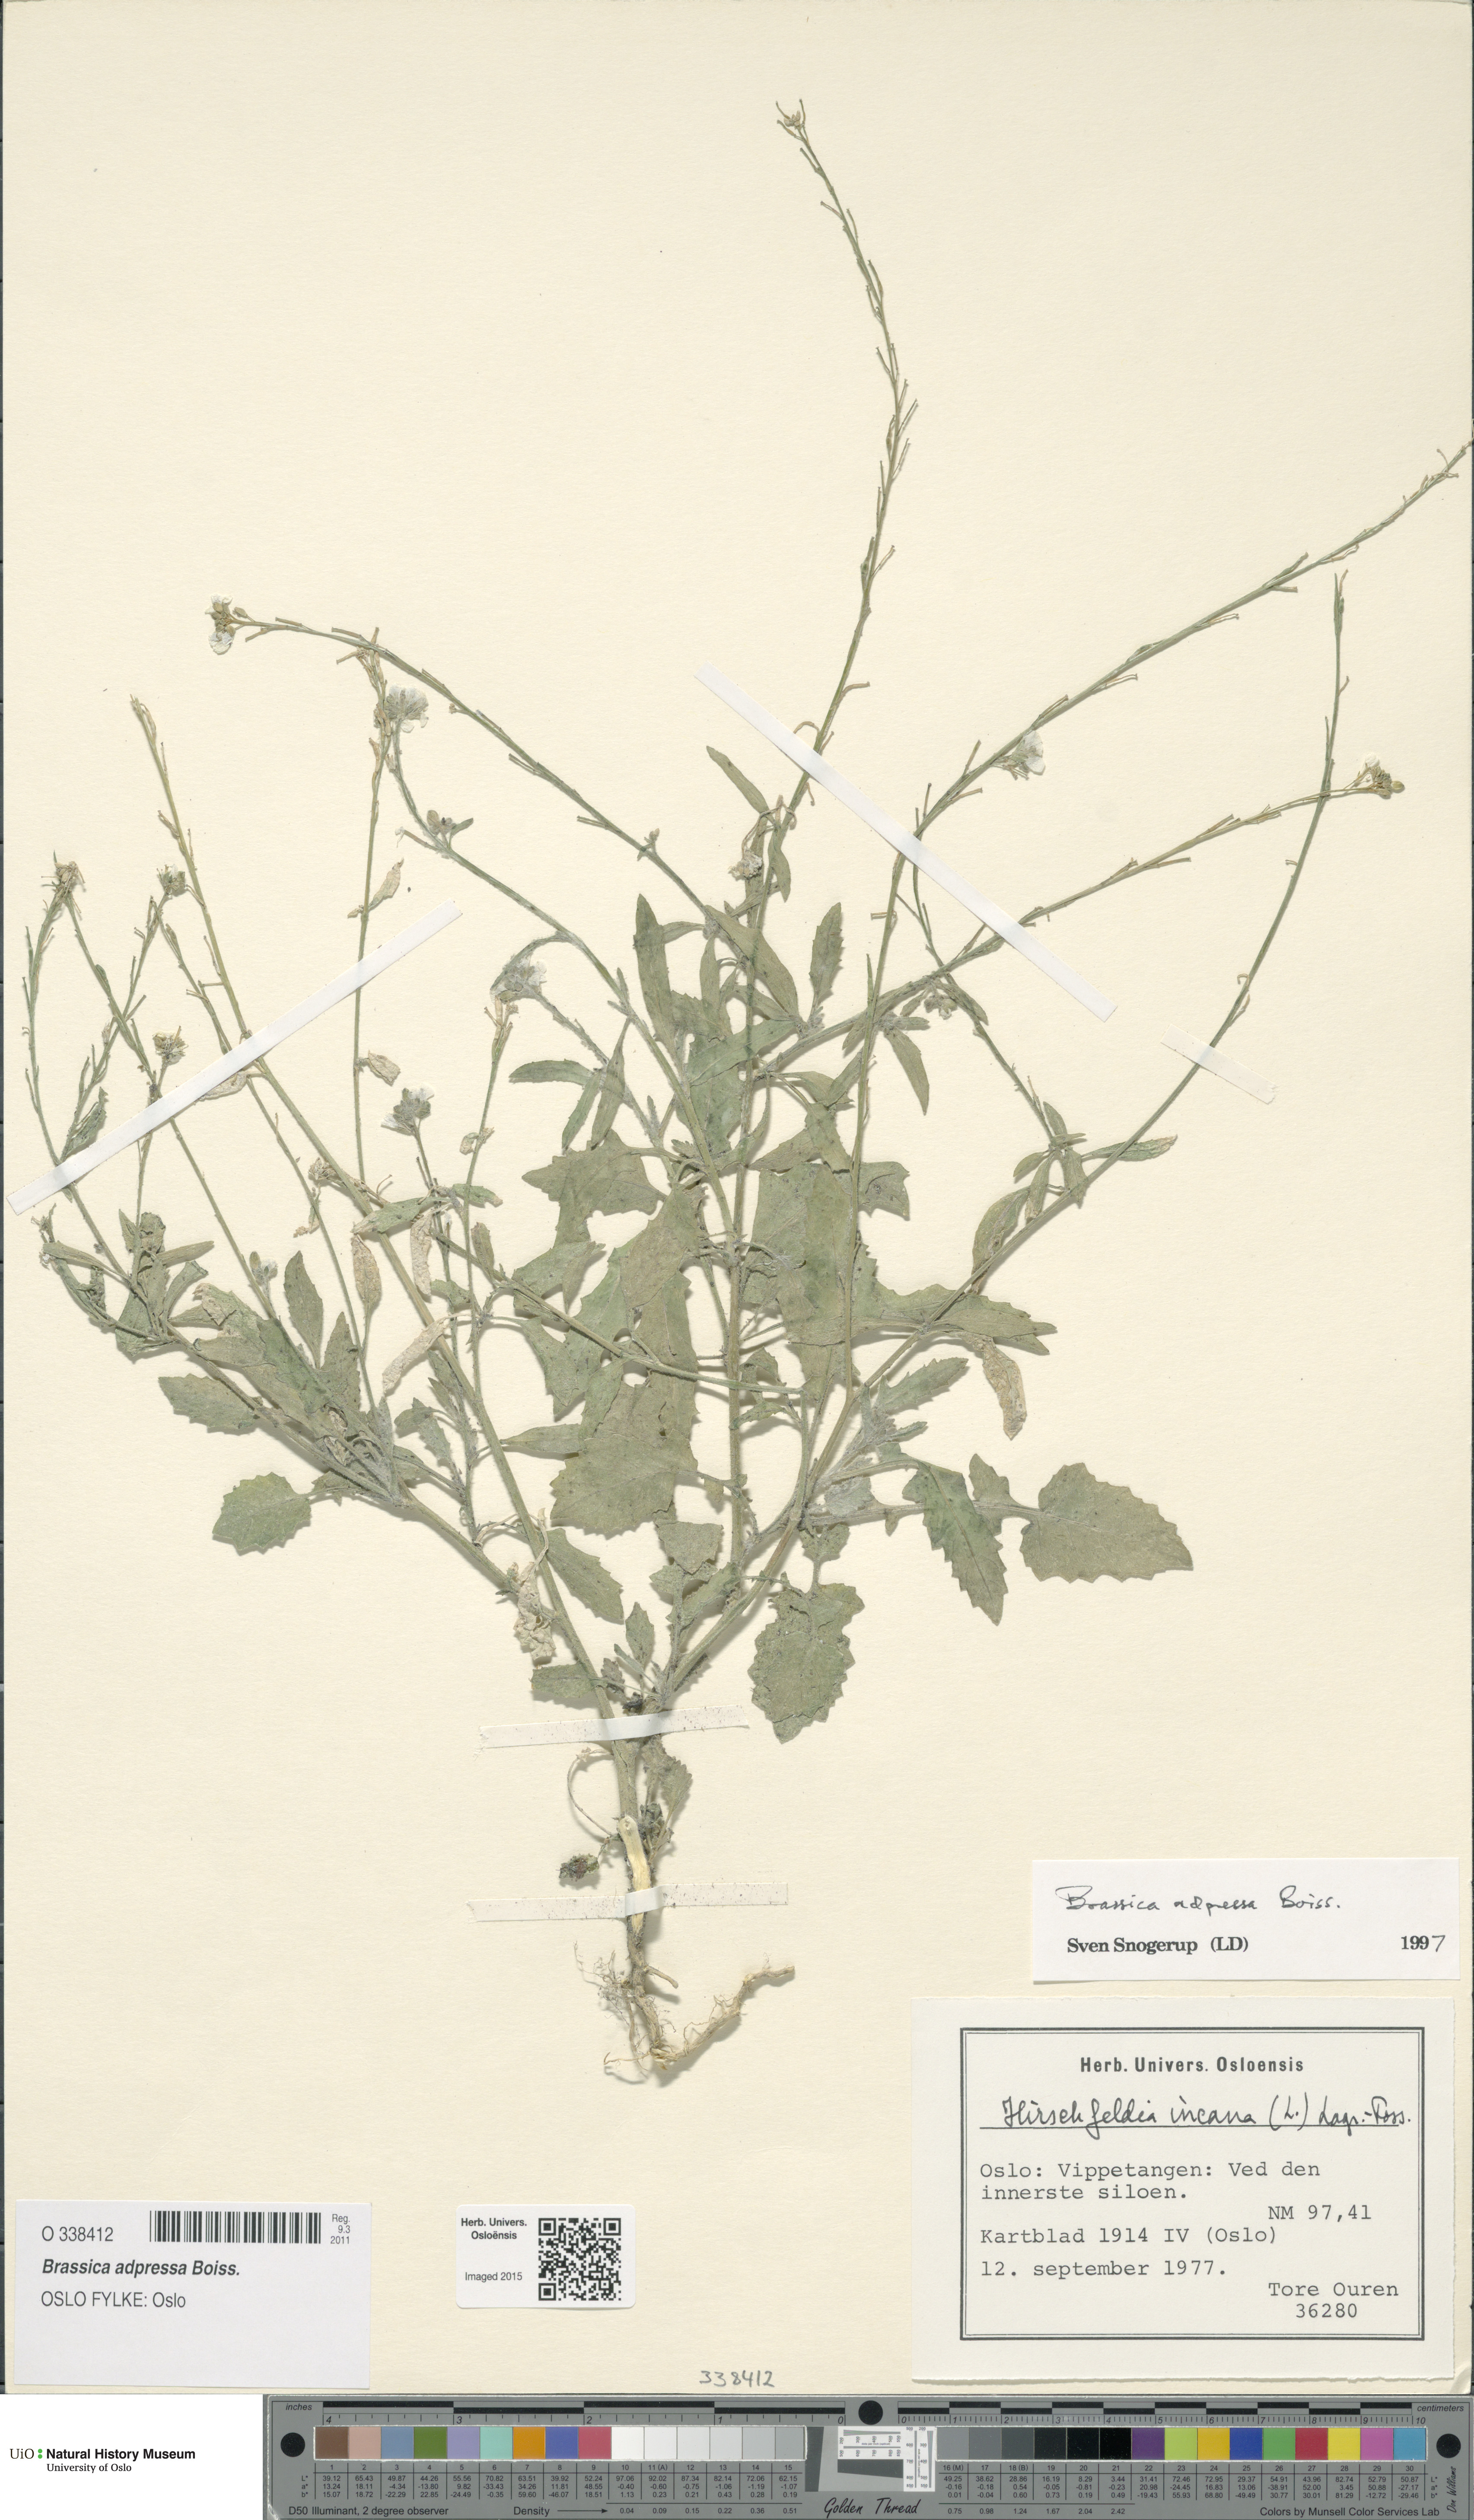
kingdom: Plantae
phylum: Tracheophyta
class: Magnoliopsida
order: Brassicales
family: Brassicaceae
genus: Hirschfeldia
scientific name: Hirschfeldia incana
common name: Hoary mustard
